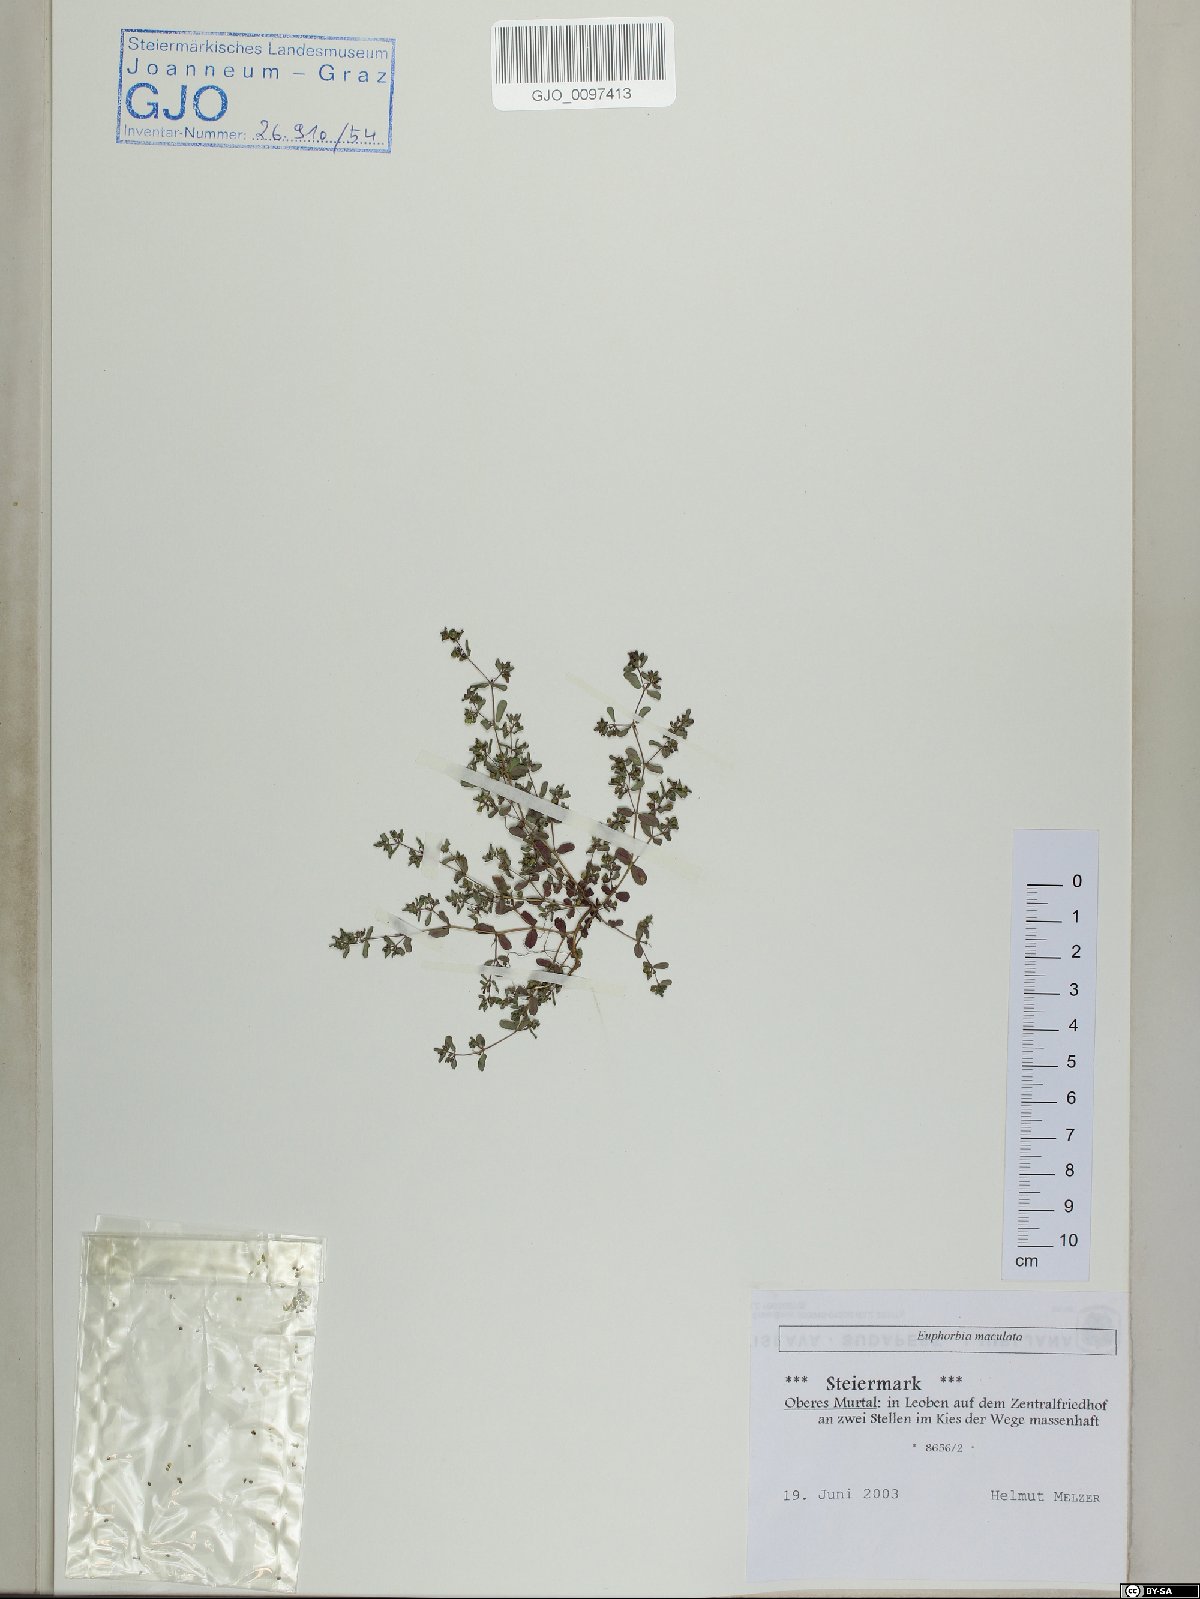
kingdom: Plantae
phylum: Tracheophyta
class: Magnoliopsida
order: Malpighiales
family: Euphorbiaceae
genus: Euphorbia
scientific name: Euphorbia maculata
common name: Spotted spurge
